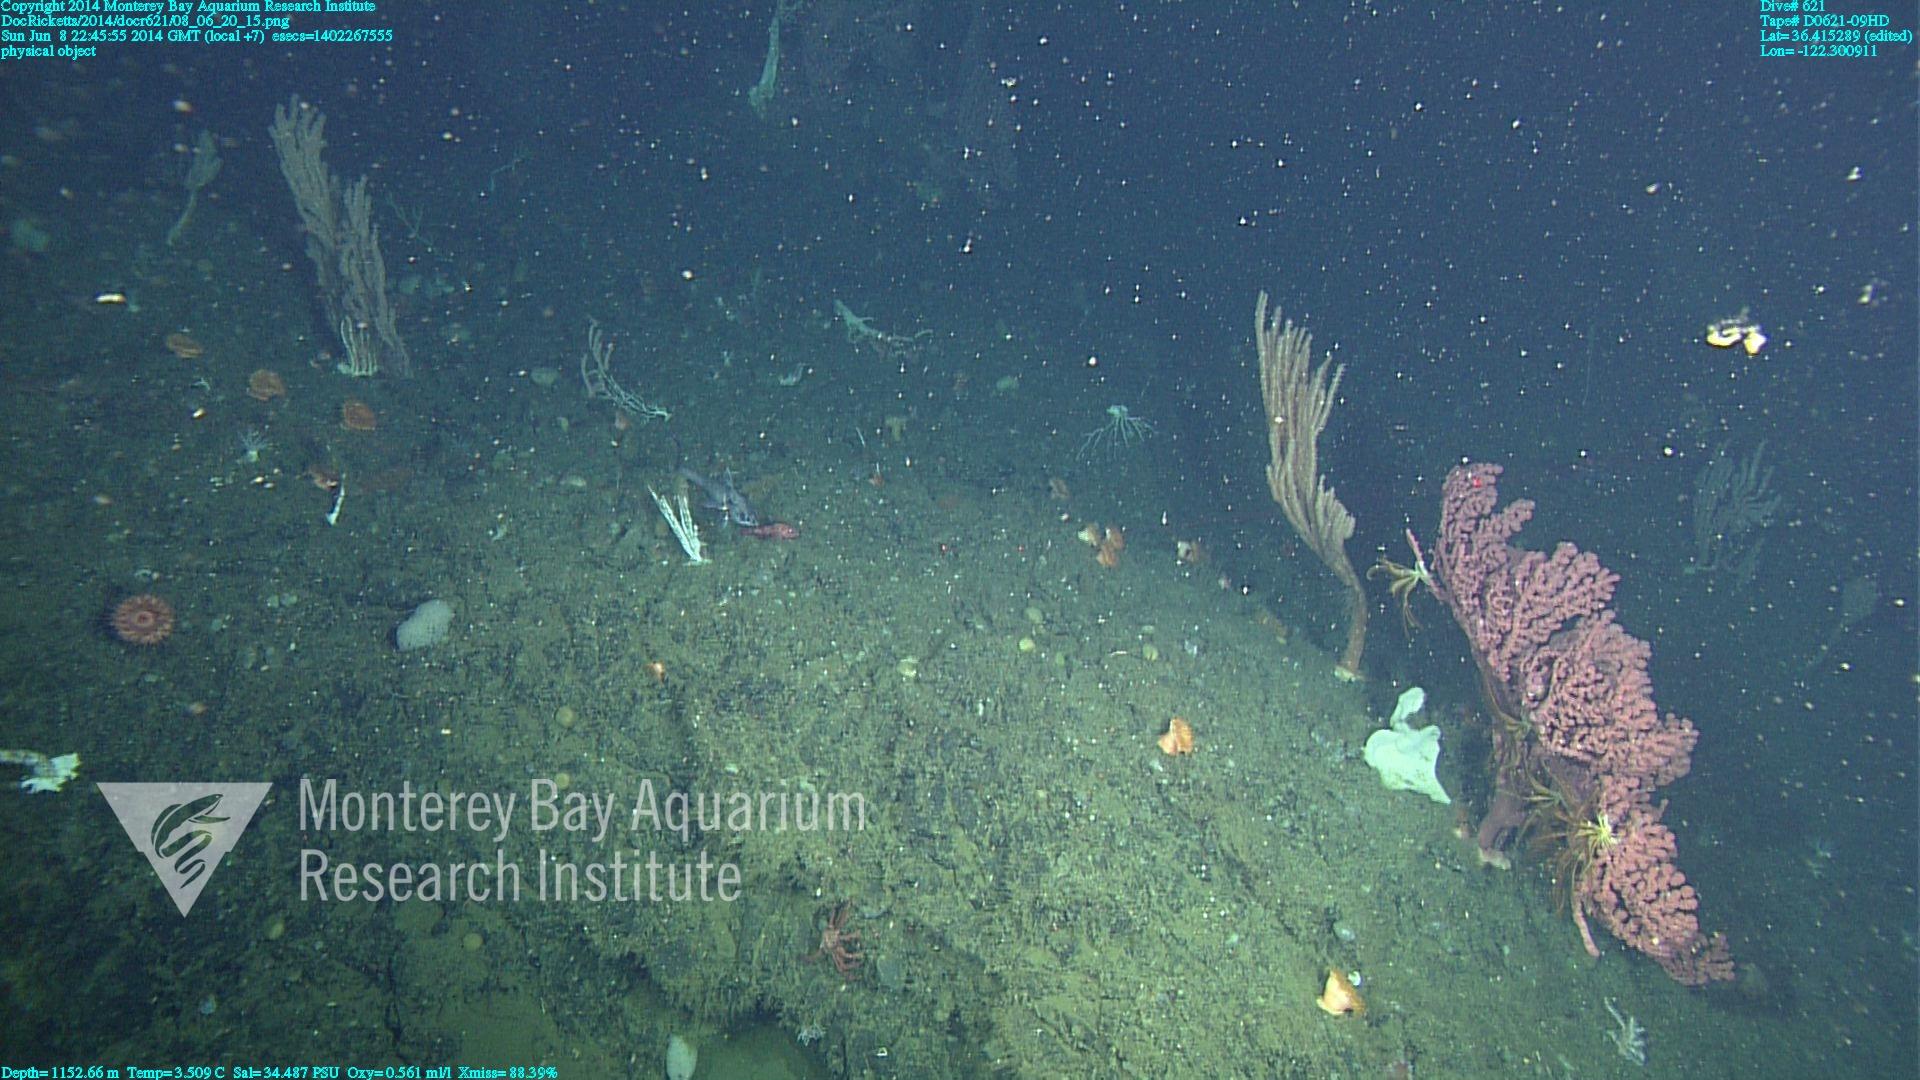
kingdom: Animalia
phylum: Cnidaria
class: Anthozoa
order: Scleralcyonacea
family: Coralliidae
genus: Paragorgia
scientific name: Paragorgia arborea
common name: Bubble gum coral
